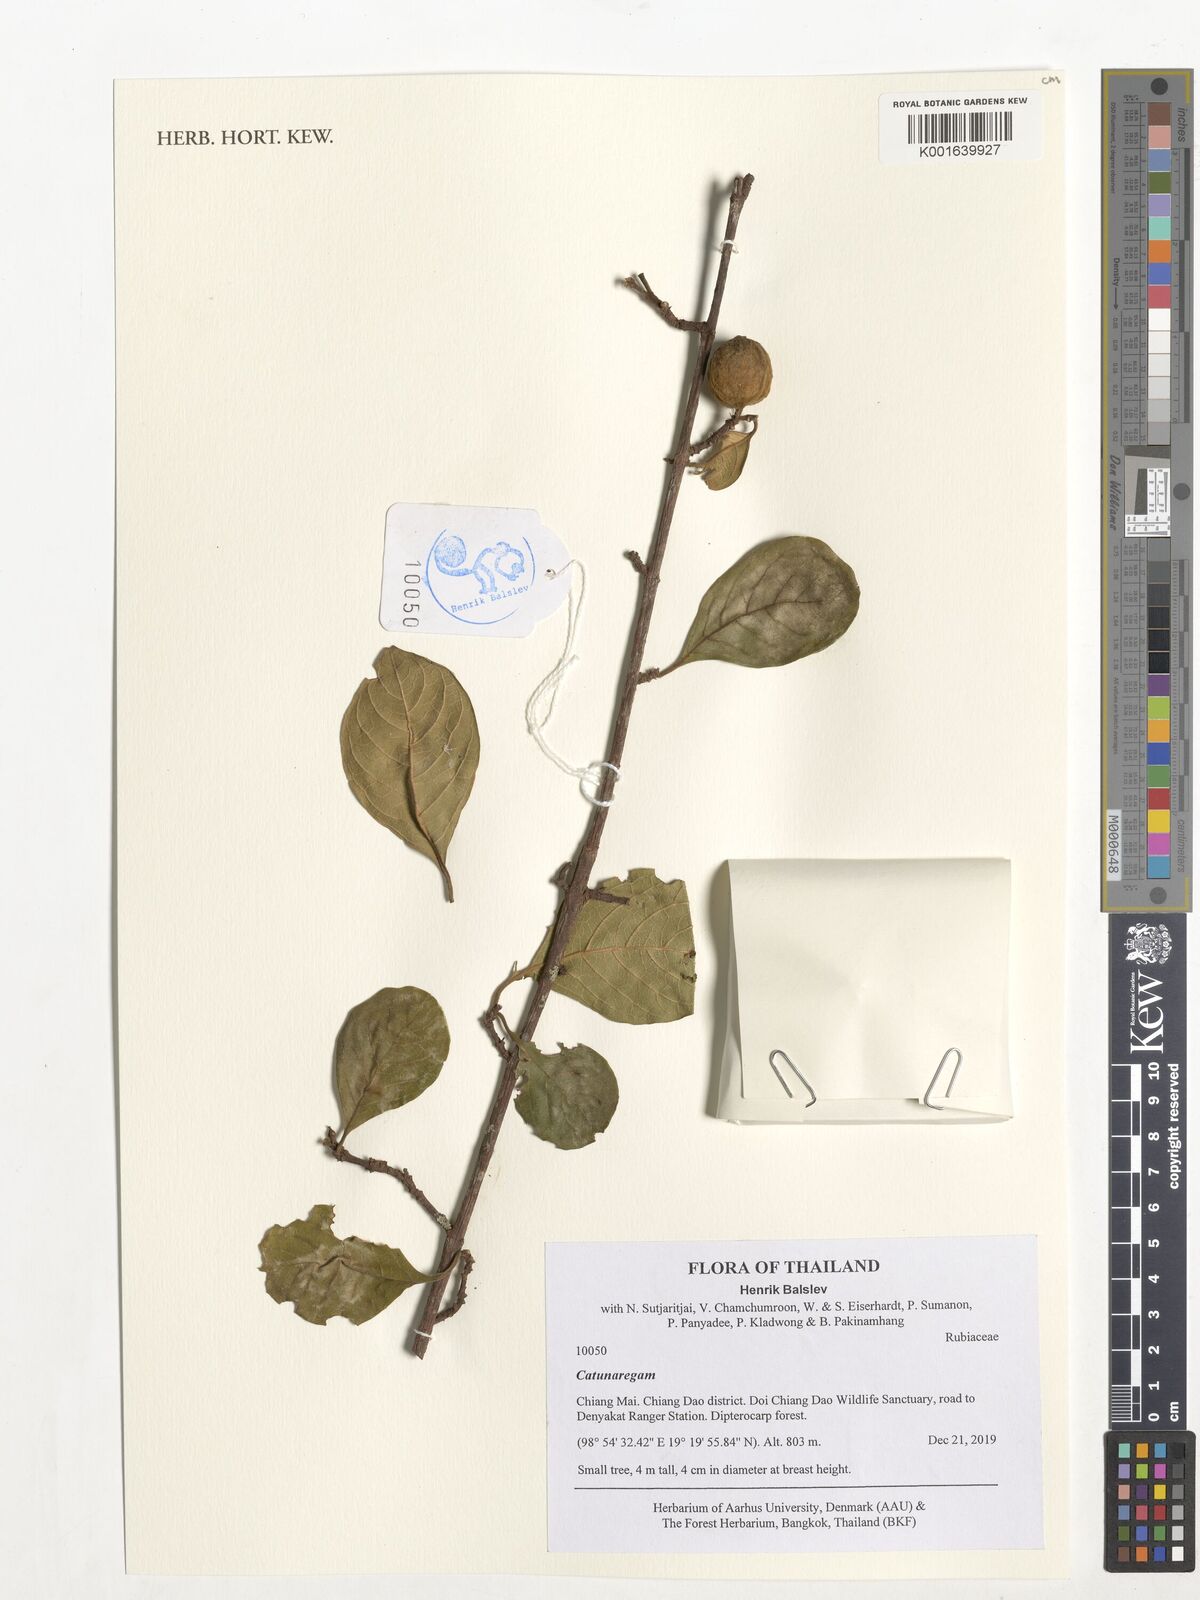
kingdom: Plantae
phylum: Tracheophyta
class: Magnoliopsida
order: Gentianales
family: Rubiaceae
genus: Catunaregam
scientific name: Catunaregam
